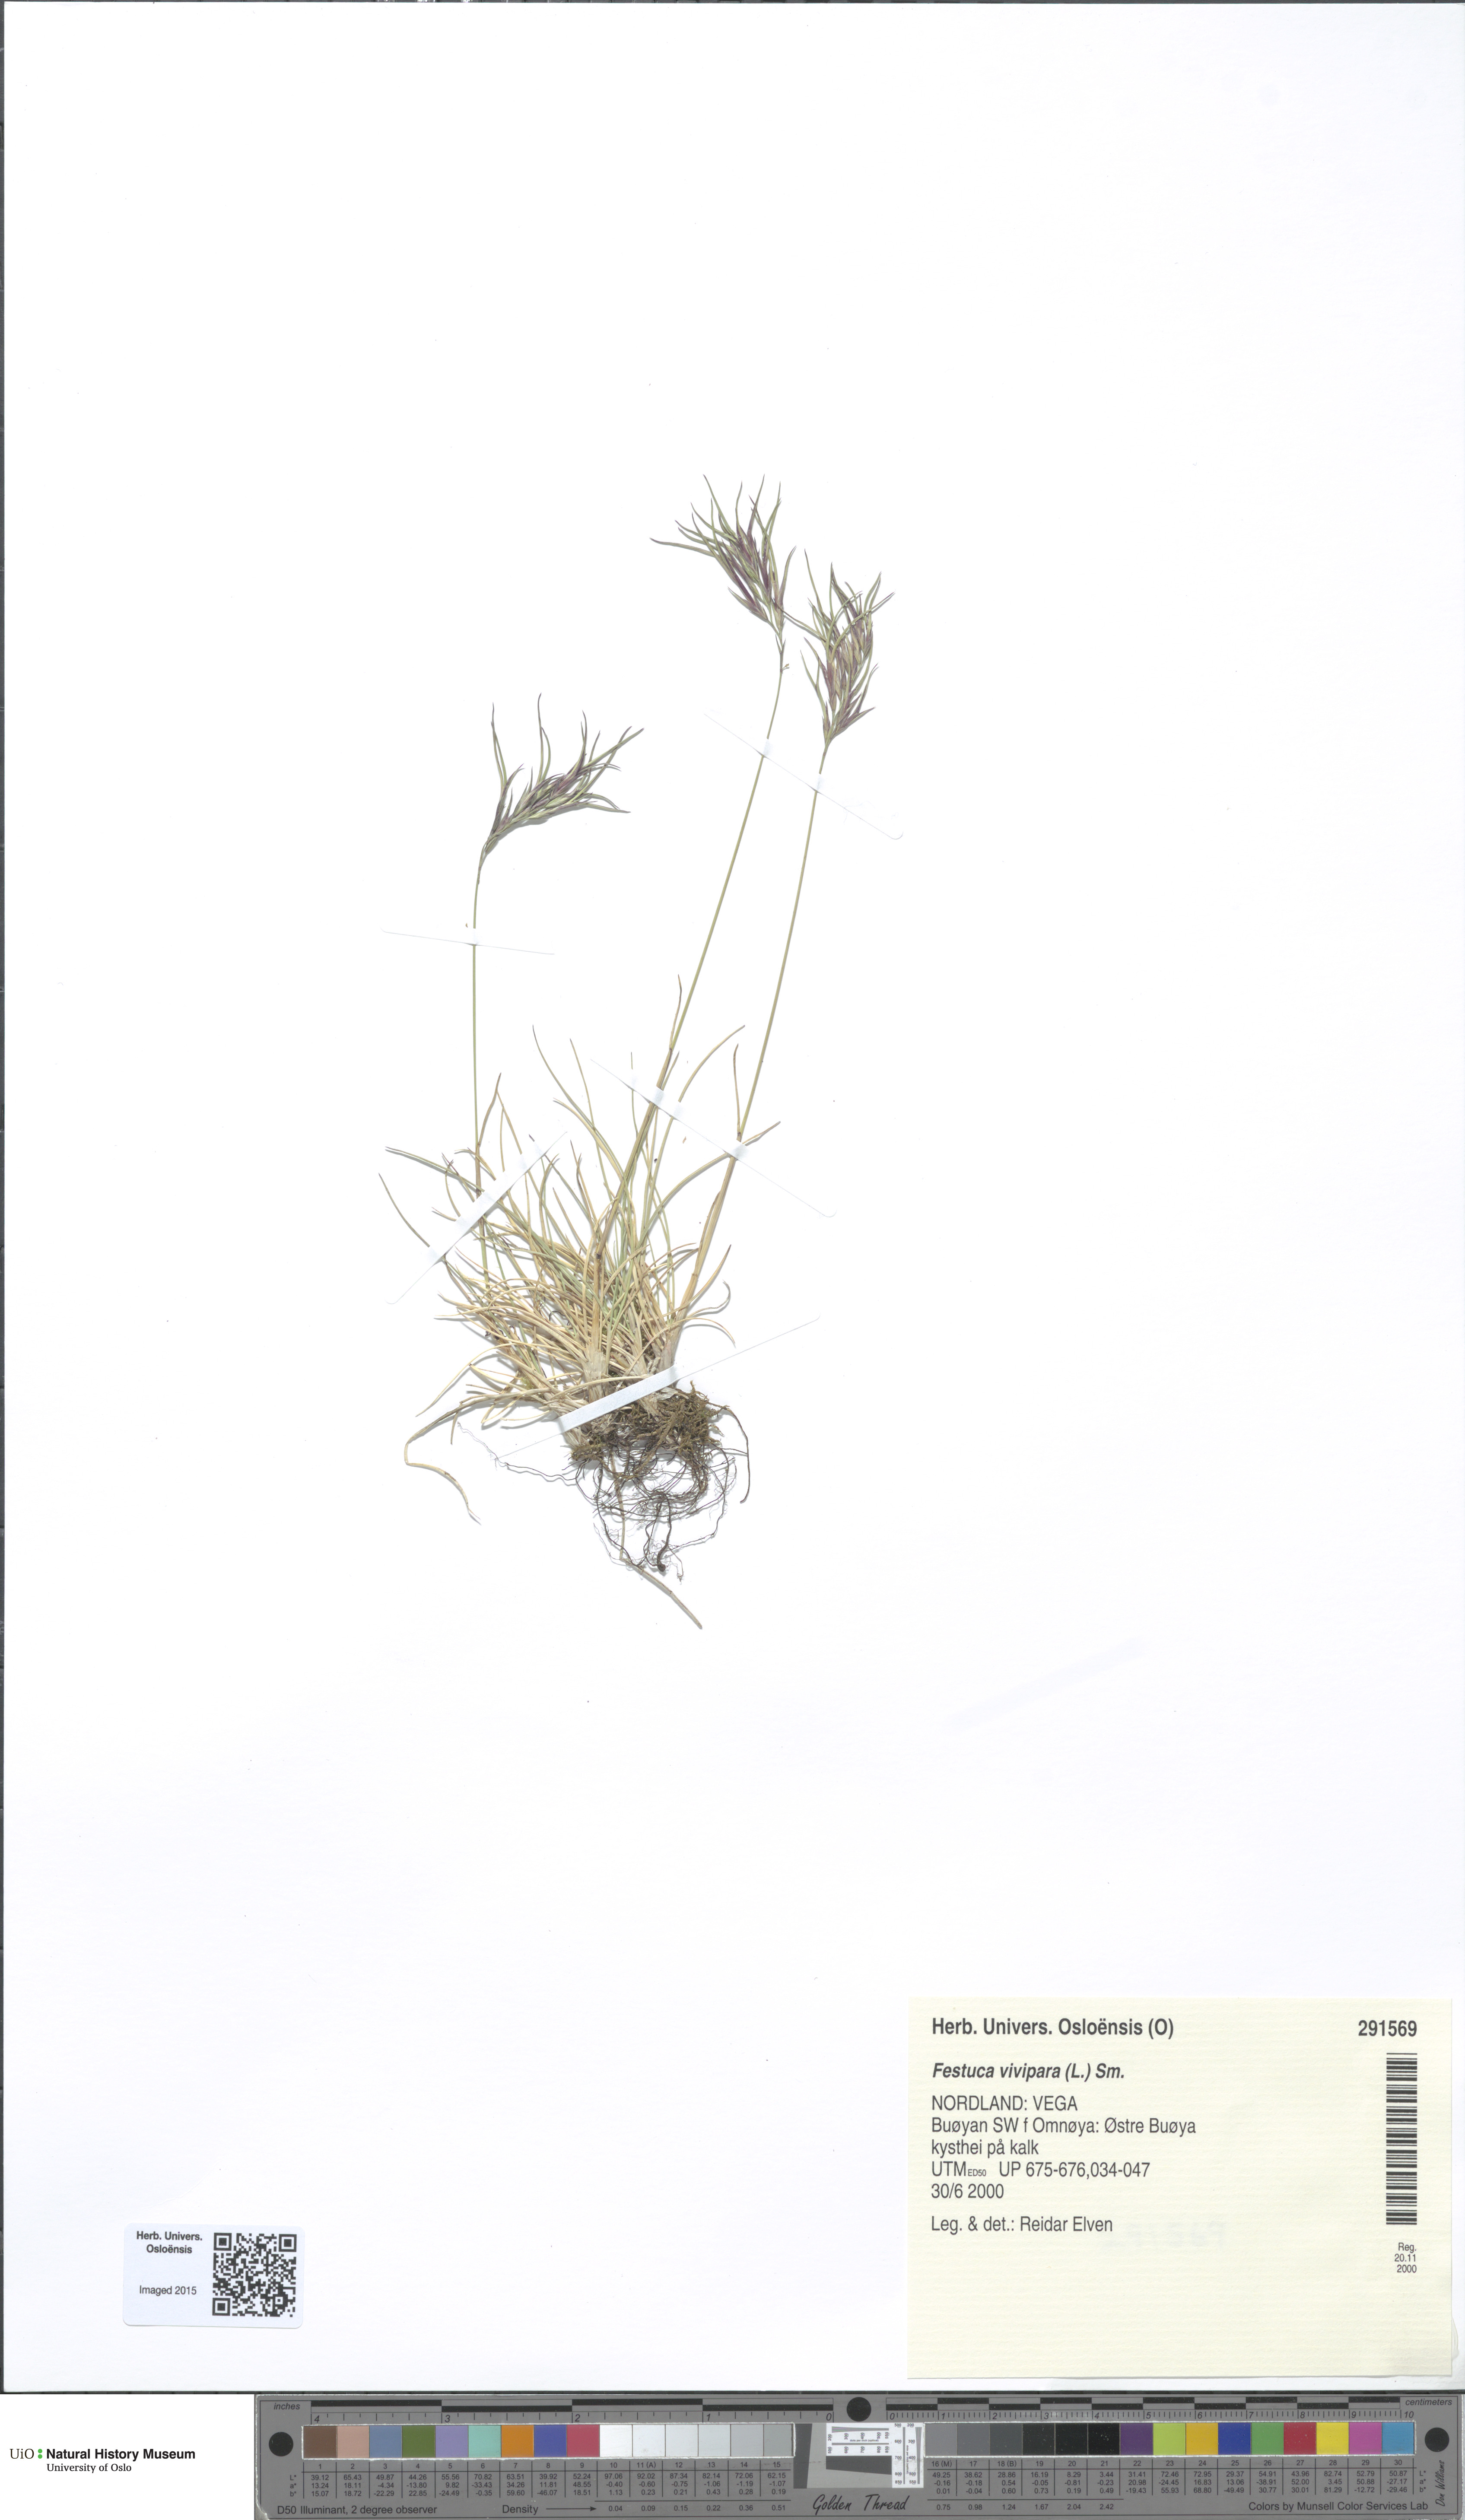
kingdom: Plantae
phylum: Tracheophyta
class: Liliopsida
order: Poales
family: Poaceae
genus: Festuca
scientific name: Festuca vivipara
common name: Viviparous sheep's-fescue
